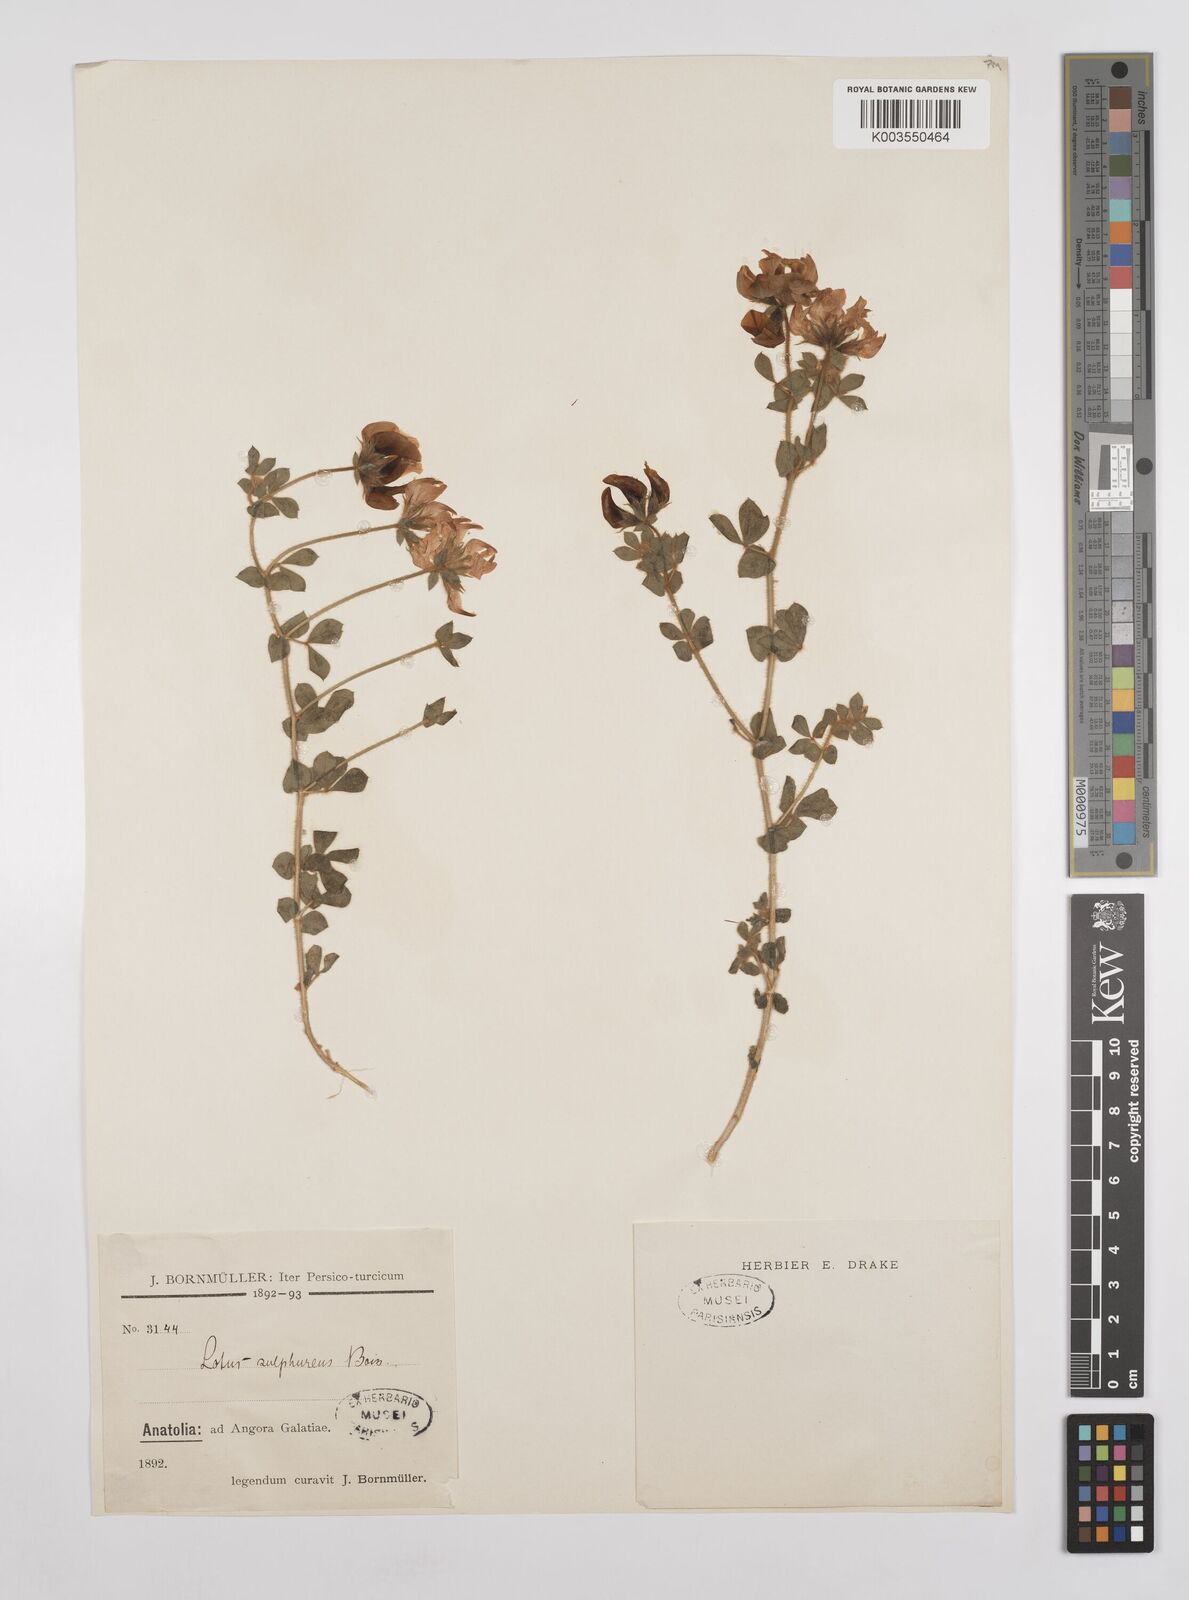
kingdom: Plantae
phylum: Tracheophyta
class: Magnoliopsida
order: Fabales
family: Fabaceae
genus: Lotus
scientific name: Lotus aegaeus
